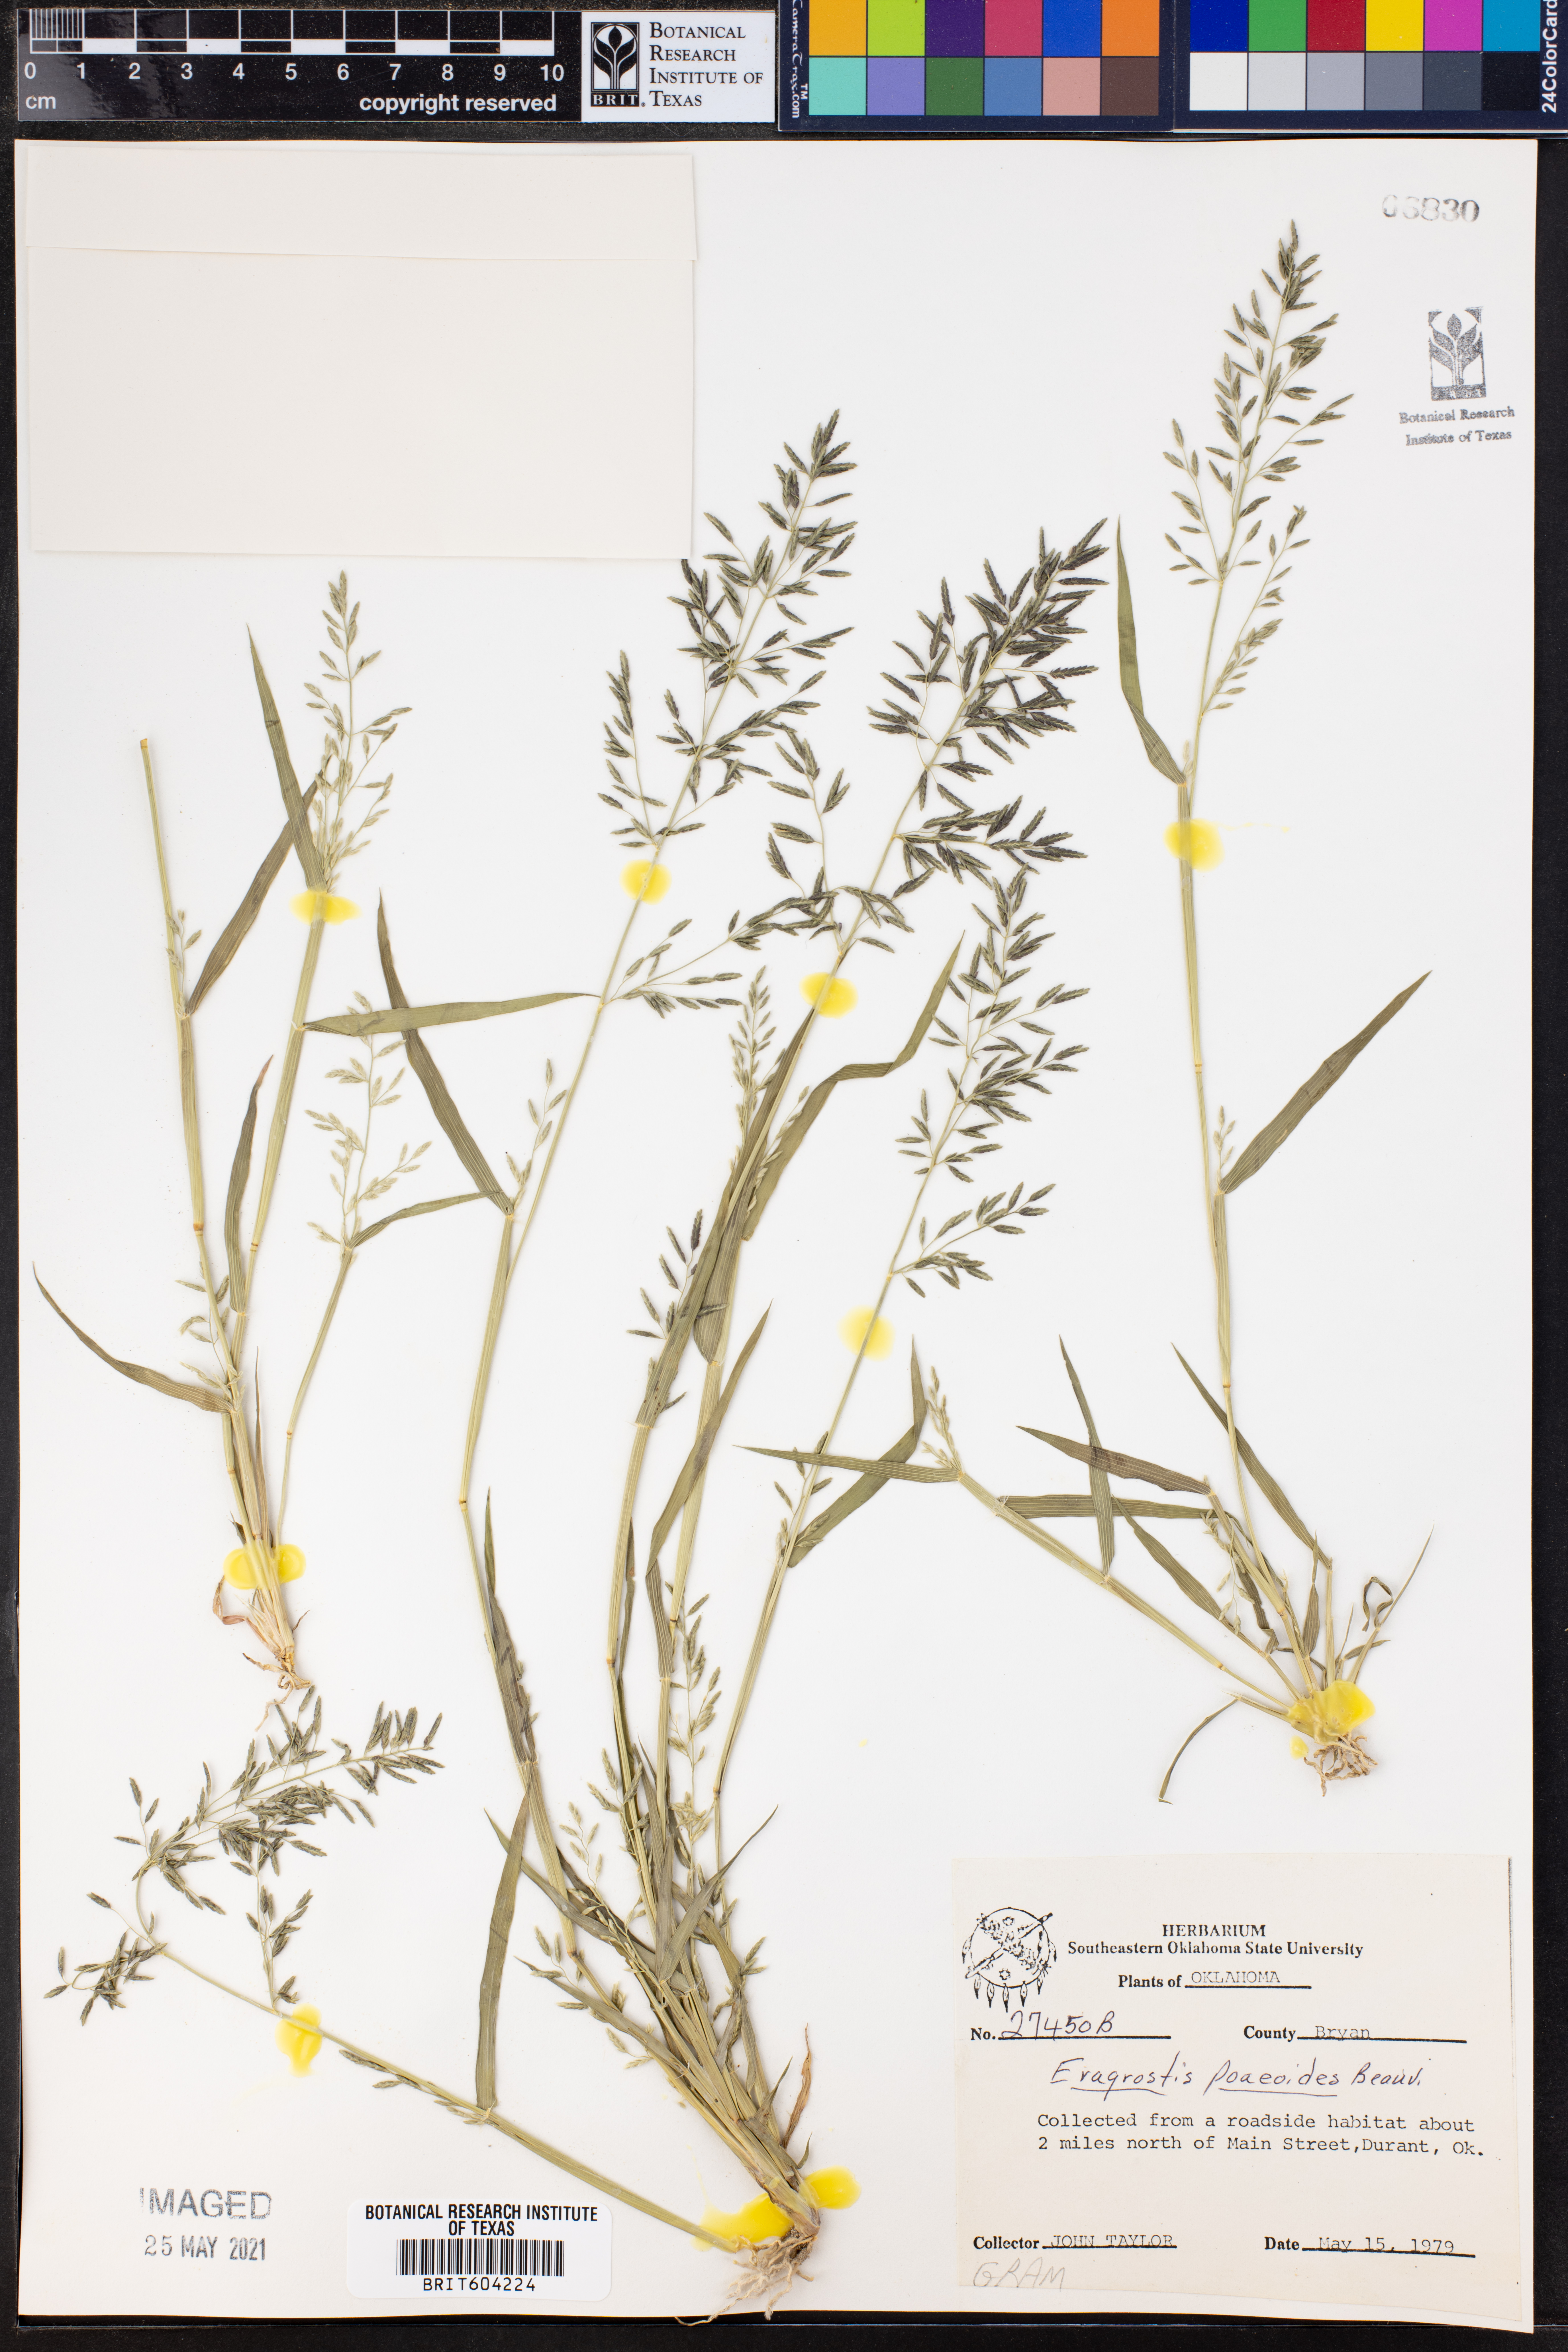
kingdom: Plantae
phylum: Tracheophyta
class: Liliopsida
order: Poales
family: Poaceae
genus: Eragrostis
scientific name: Eragrostis minor
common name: Small love-grass
